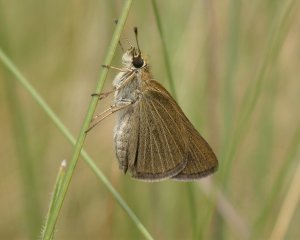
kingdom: Animalia
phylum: Arthropoda
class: Insecta
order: Lepidoptera
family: Hesperiidae
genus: Nastra
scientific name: Nastra lherminier
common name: Swarthy Skipper
